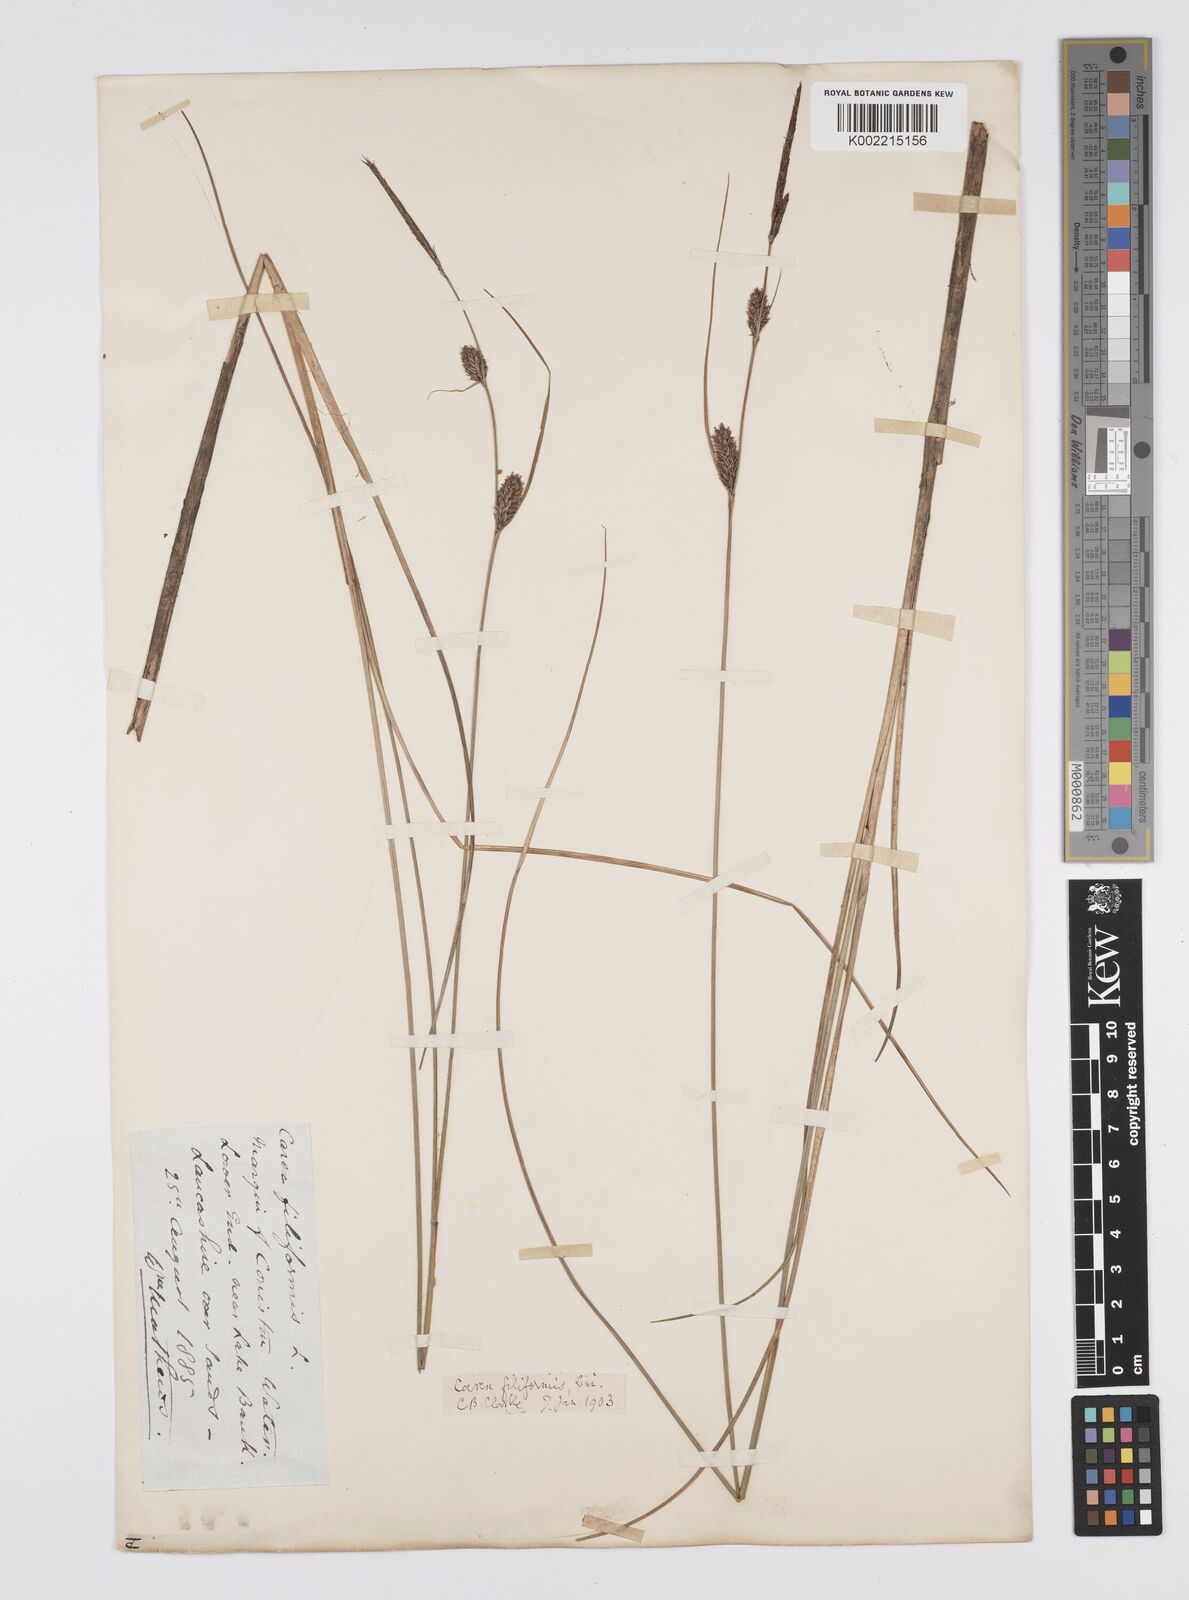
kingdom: Plantae
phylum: Tracheophyta
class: Liliopsida
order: Poales
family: Cyperaceae
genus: Carex
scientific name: Carex lasiocarpa
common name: Slender sedge
